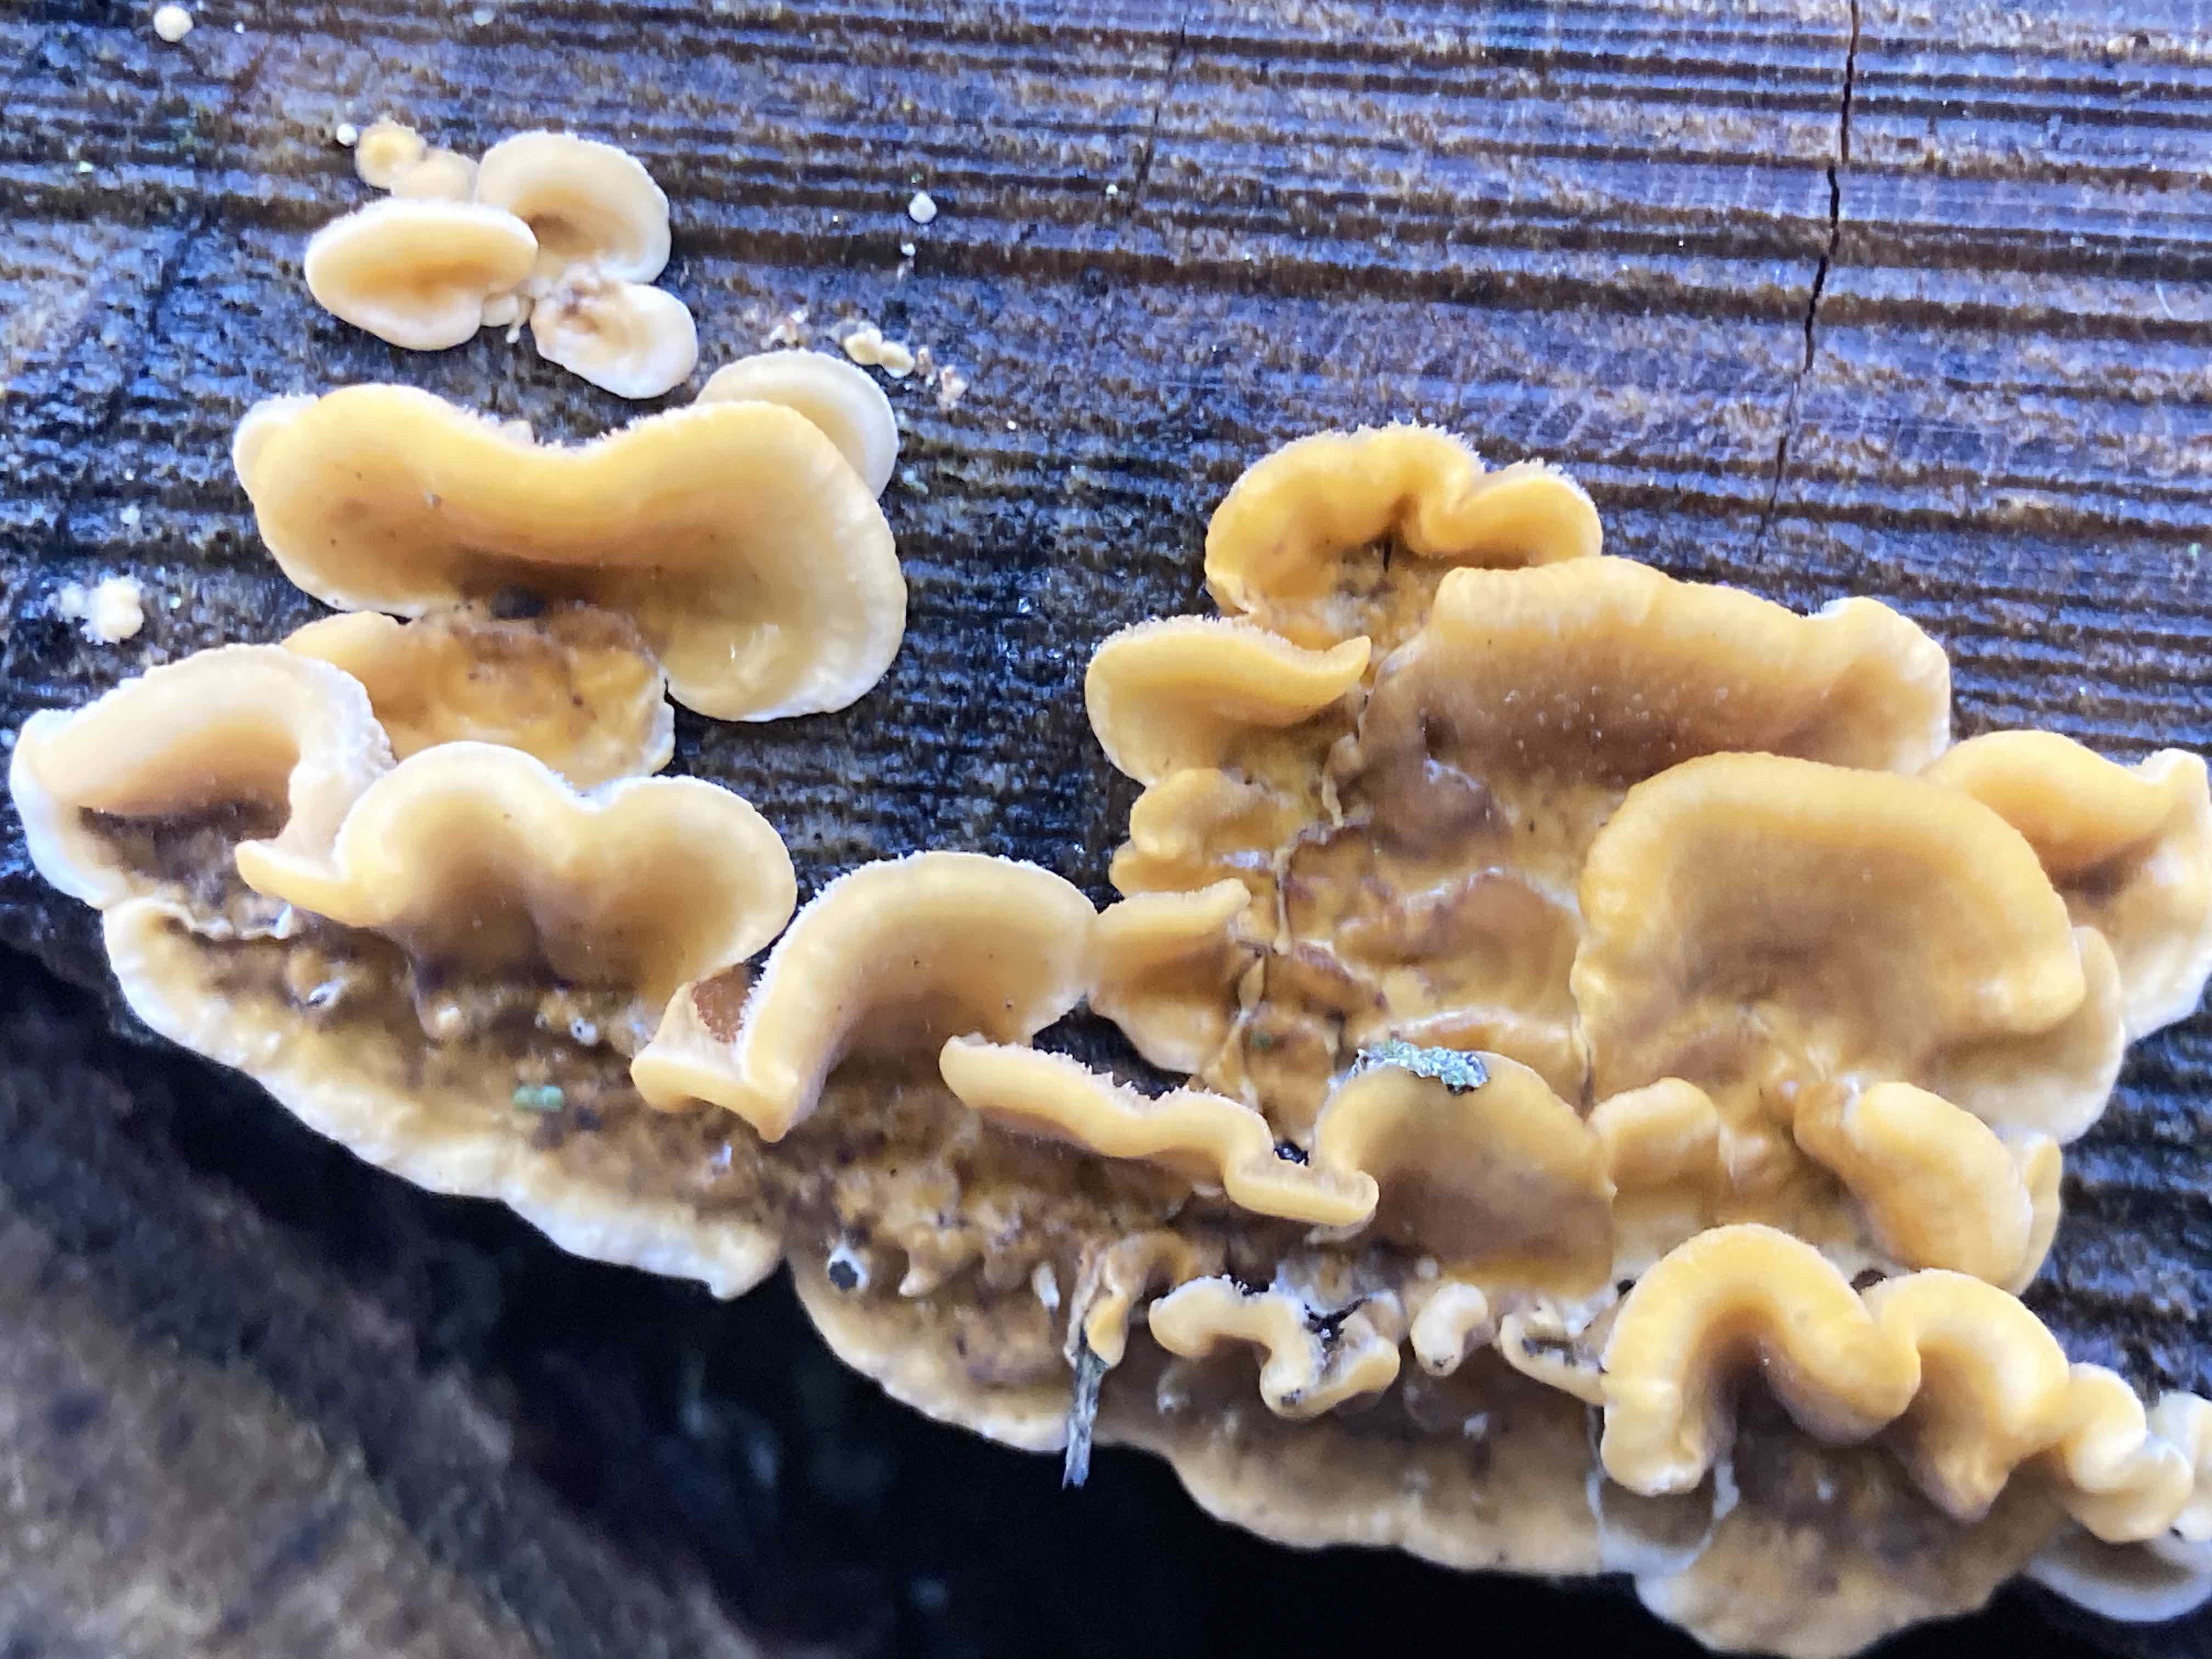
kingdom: Fungi
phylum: Basidiomycota
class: Agaricomycetes
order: Russulales
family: Stereaceae
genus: Stereum
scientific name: Stereum hirsutum
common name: håret lædersvamp
